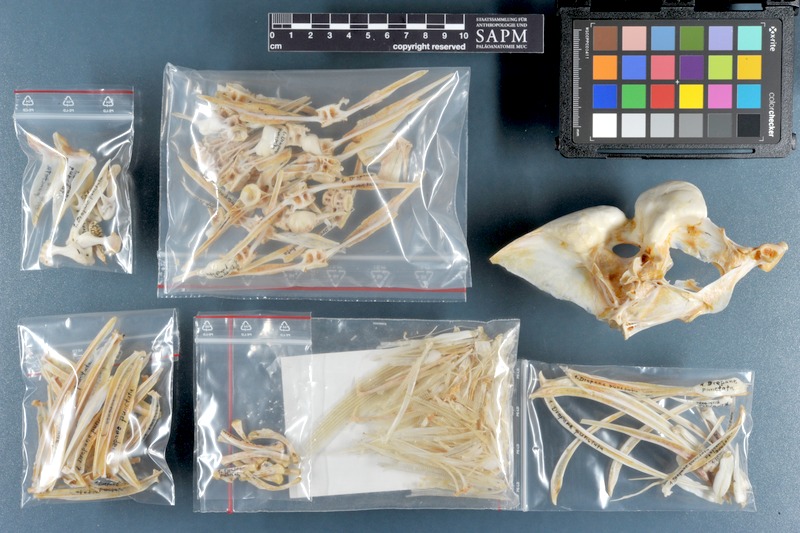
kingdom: Animalia
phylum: Chordata
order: Perciformes
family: Drepaneidae
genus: Drepane
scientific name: Drepane punctata
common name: Spotted sicklefish
